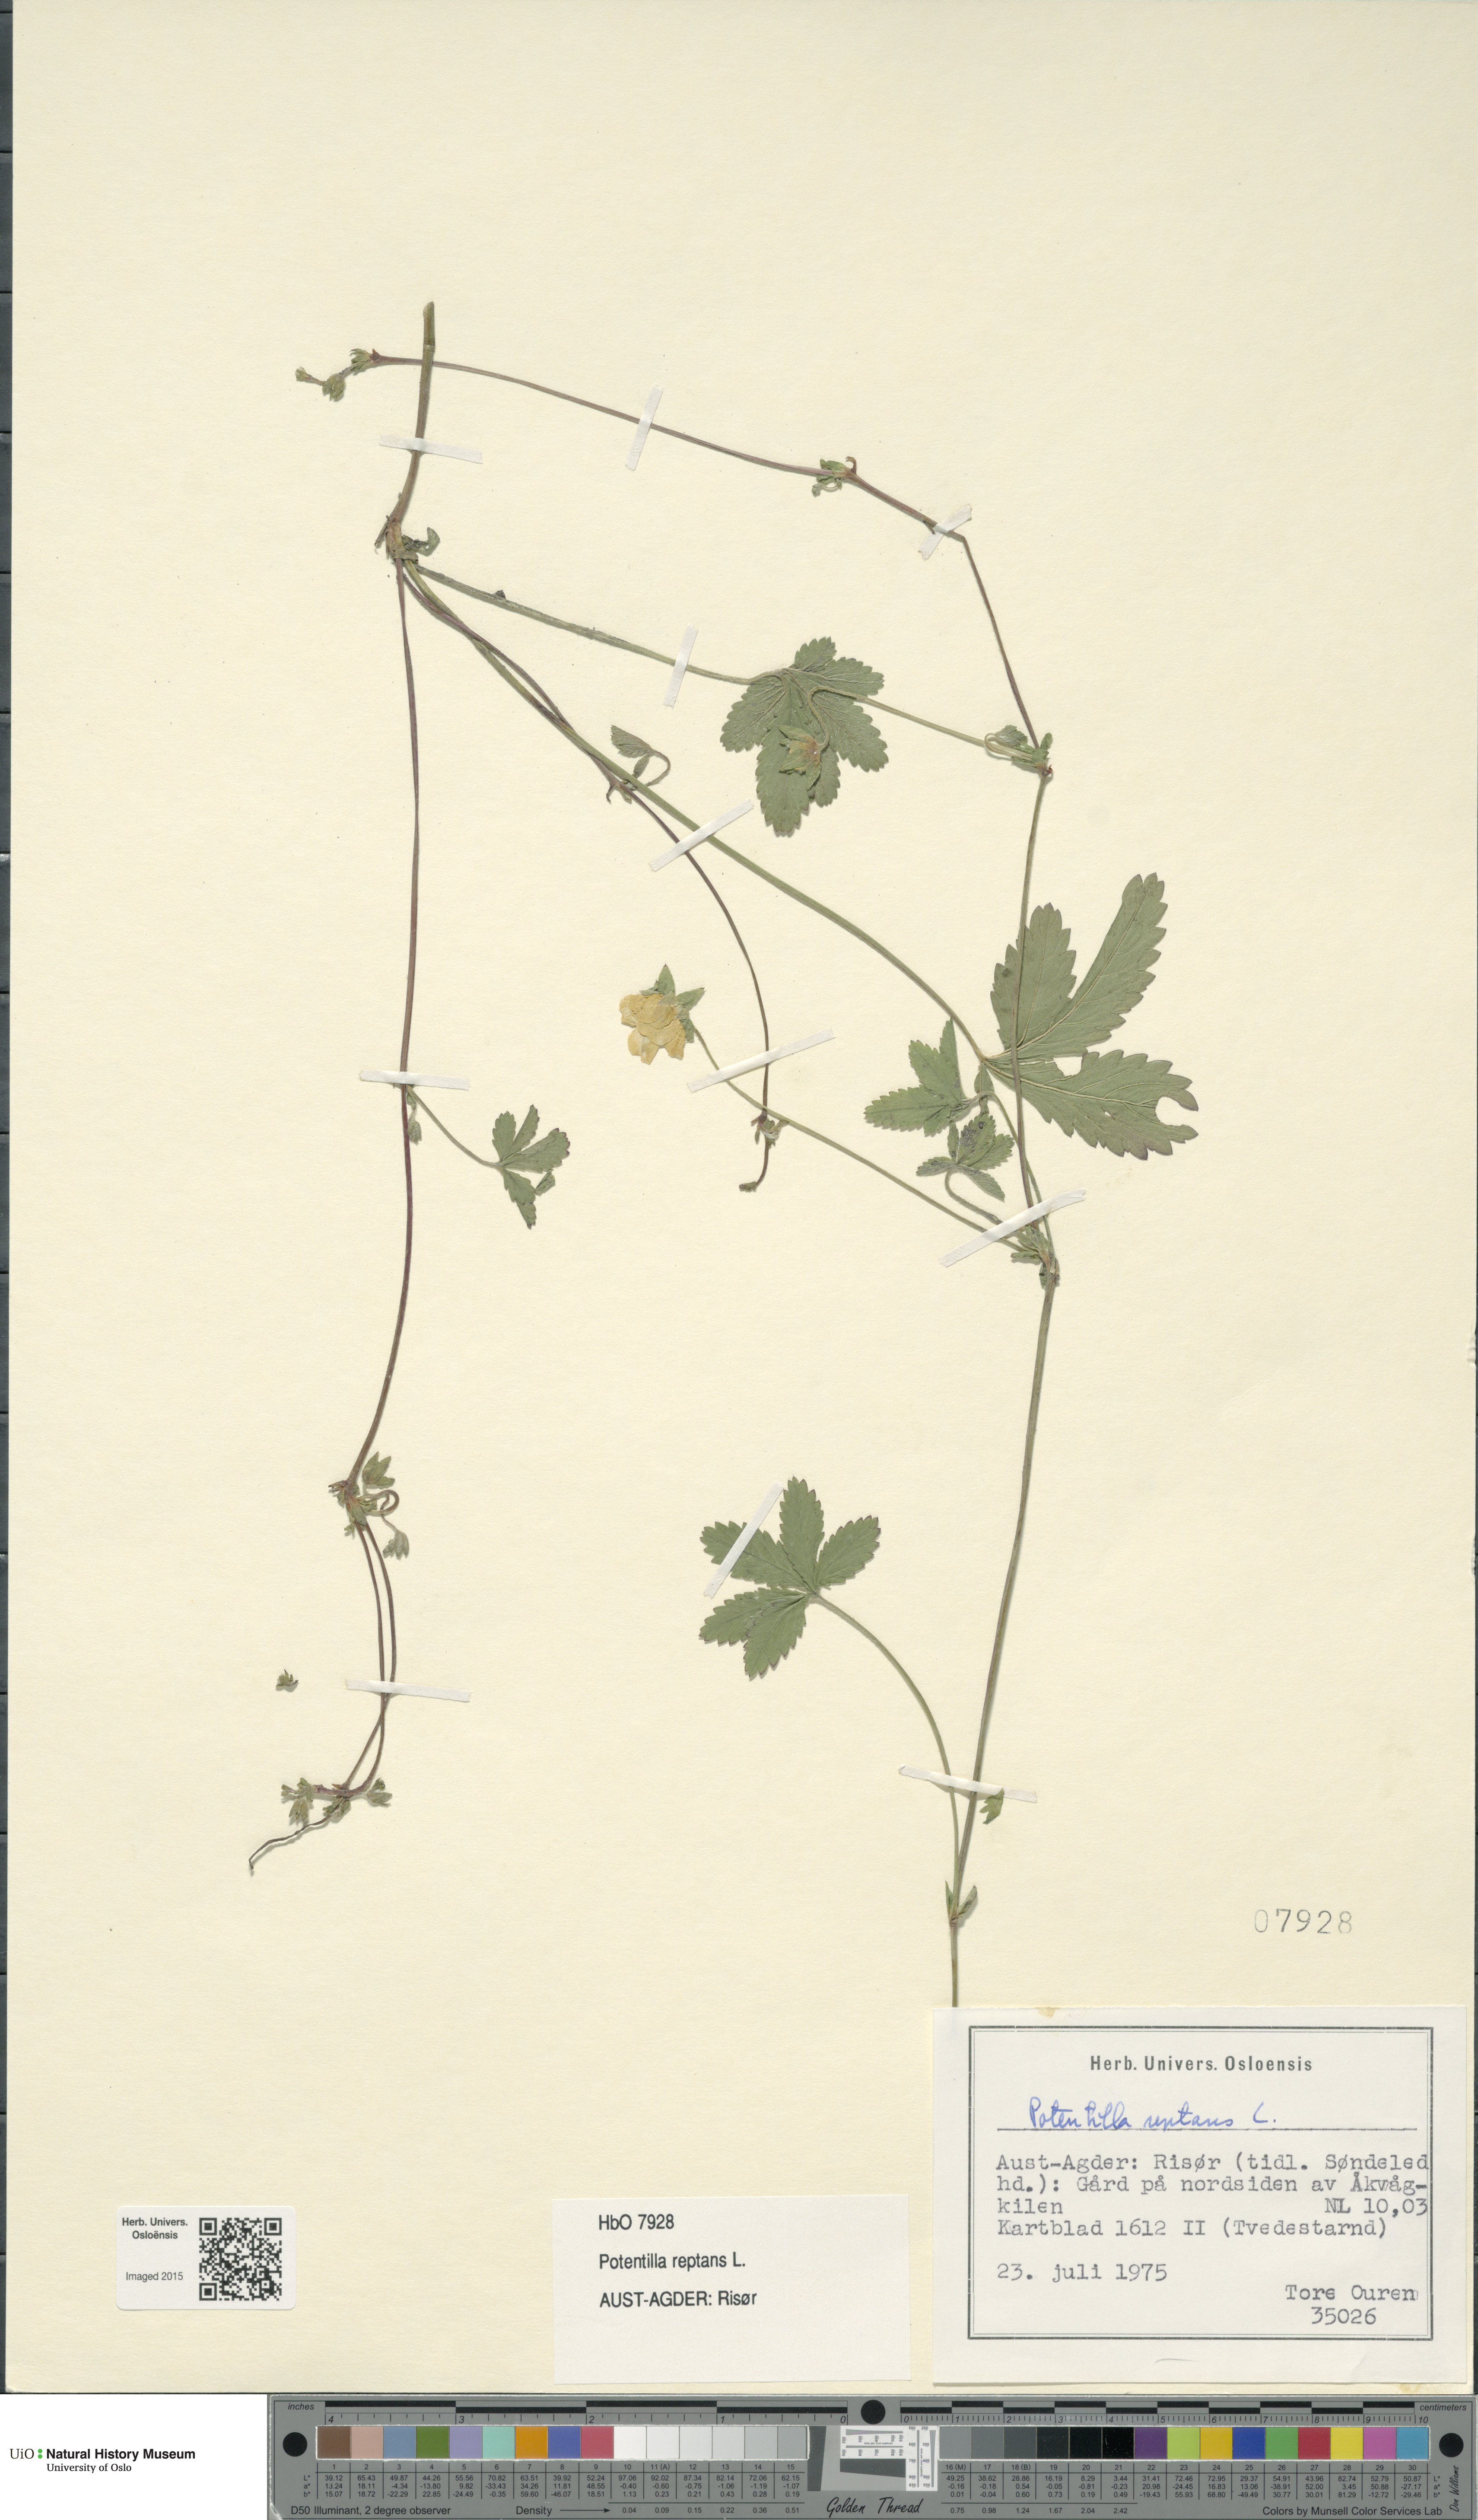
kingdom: Plantae
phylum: Tracheophyta
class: Magnoliopsida
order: Rosales
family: Rosaceae
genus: Potentilla
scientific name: Potentilla reptans
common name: Creeping cinquefoil
